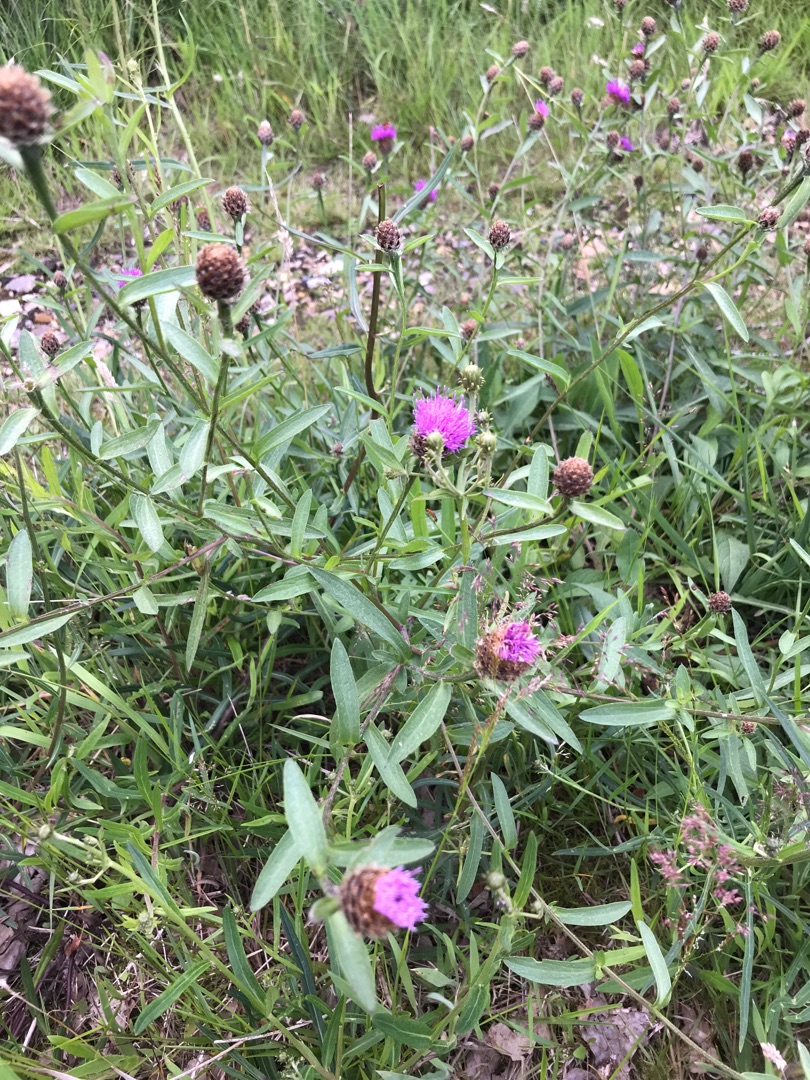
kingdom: Plantae
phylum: Tracheophyta
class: Magnoliopsida
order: Asterales
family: Asteraceae
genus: Centaurea
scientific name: Centaurea moncktonii
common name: Hybrid-knopurt
